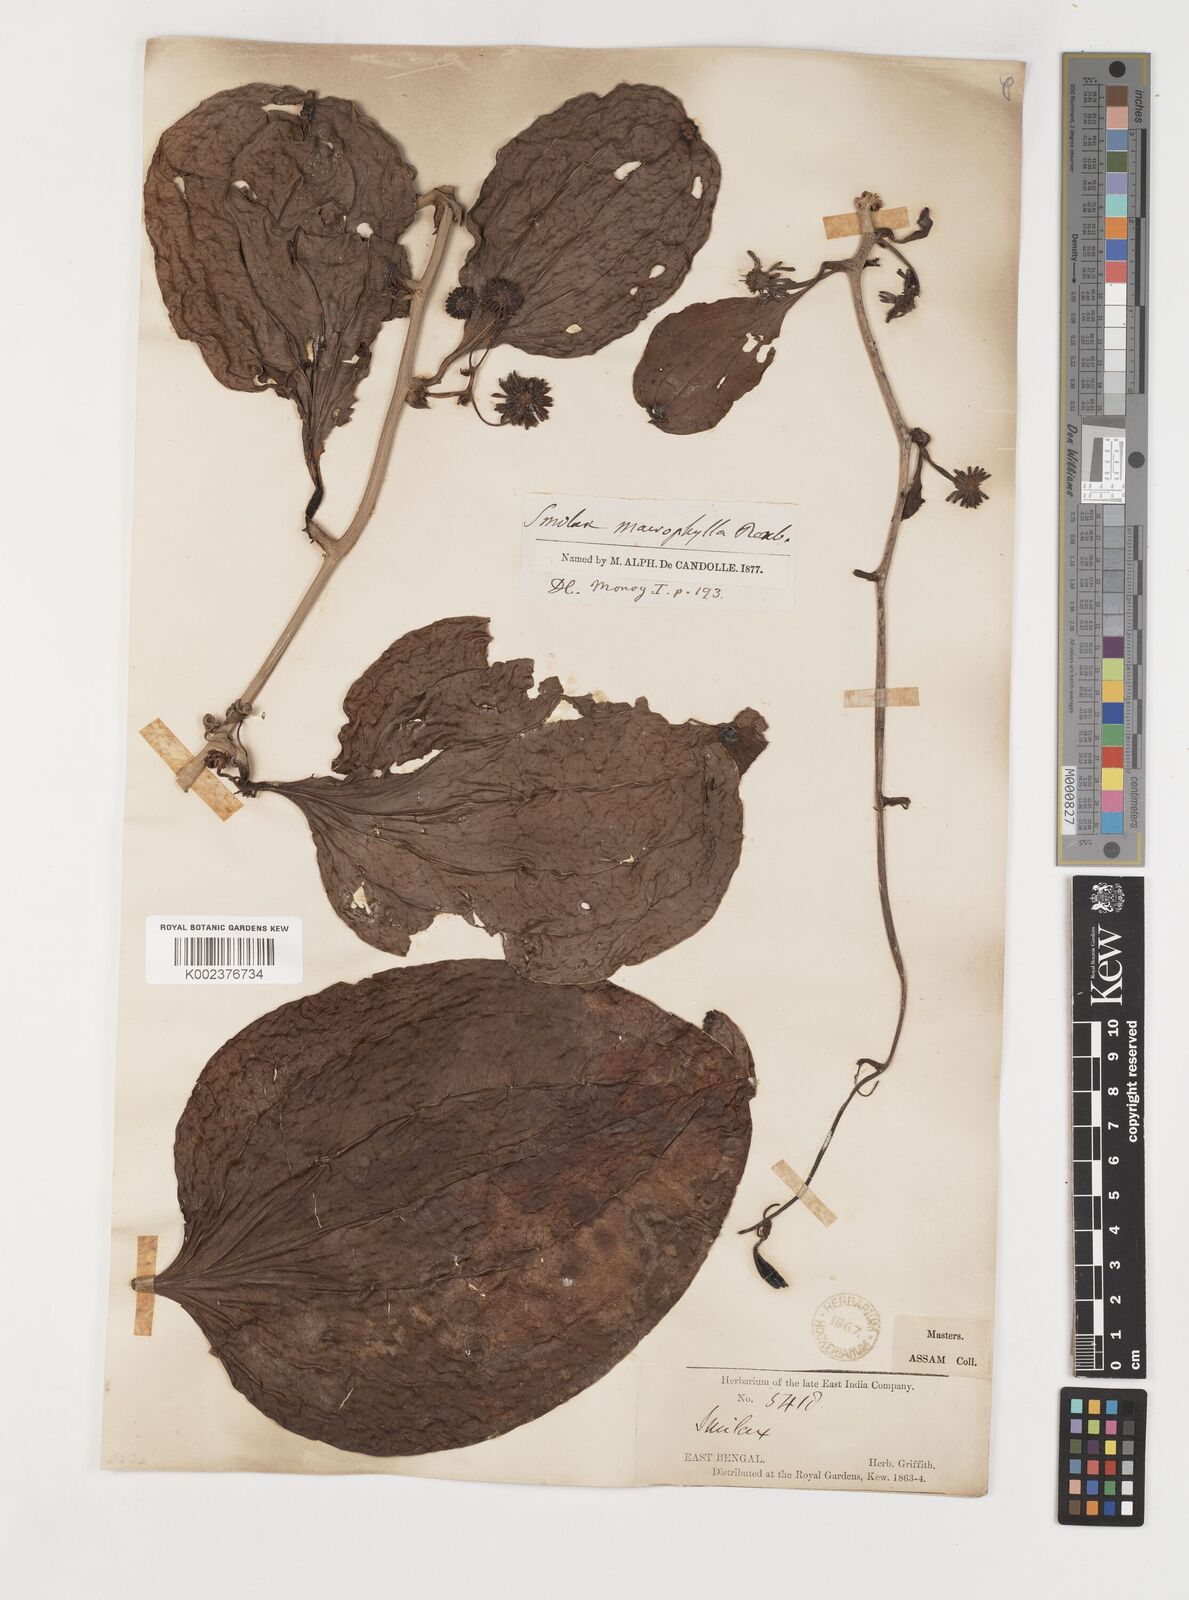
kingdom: Plantae
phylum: Tracheophyta
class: Liliopsida
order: Liliales
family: Smilacaceae
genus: Smilax
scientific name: Smilax ovalifolia
